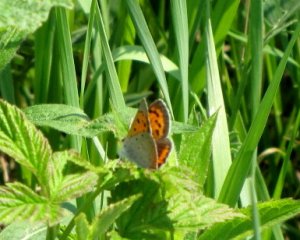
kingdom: Animalia
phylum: Arthropoda
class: Insecta
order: Lepidoptera
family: Lycaenidae
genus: Lycaena
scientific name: Lycaena phlaeas
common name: American Copper
